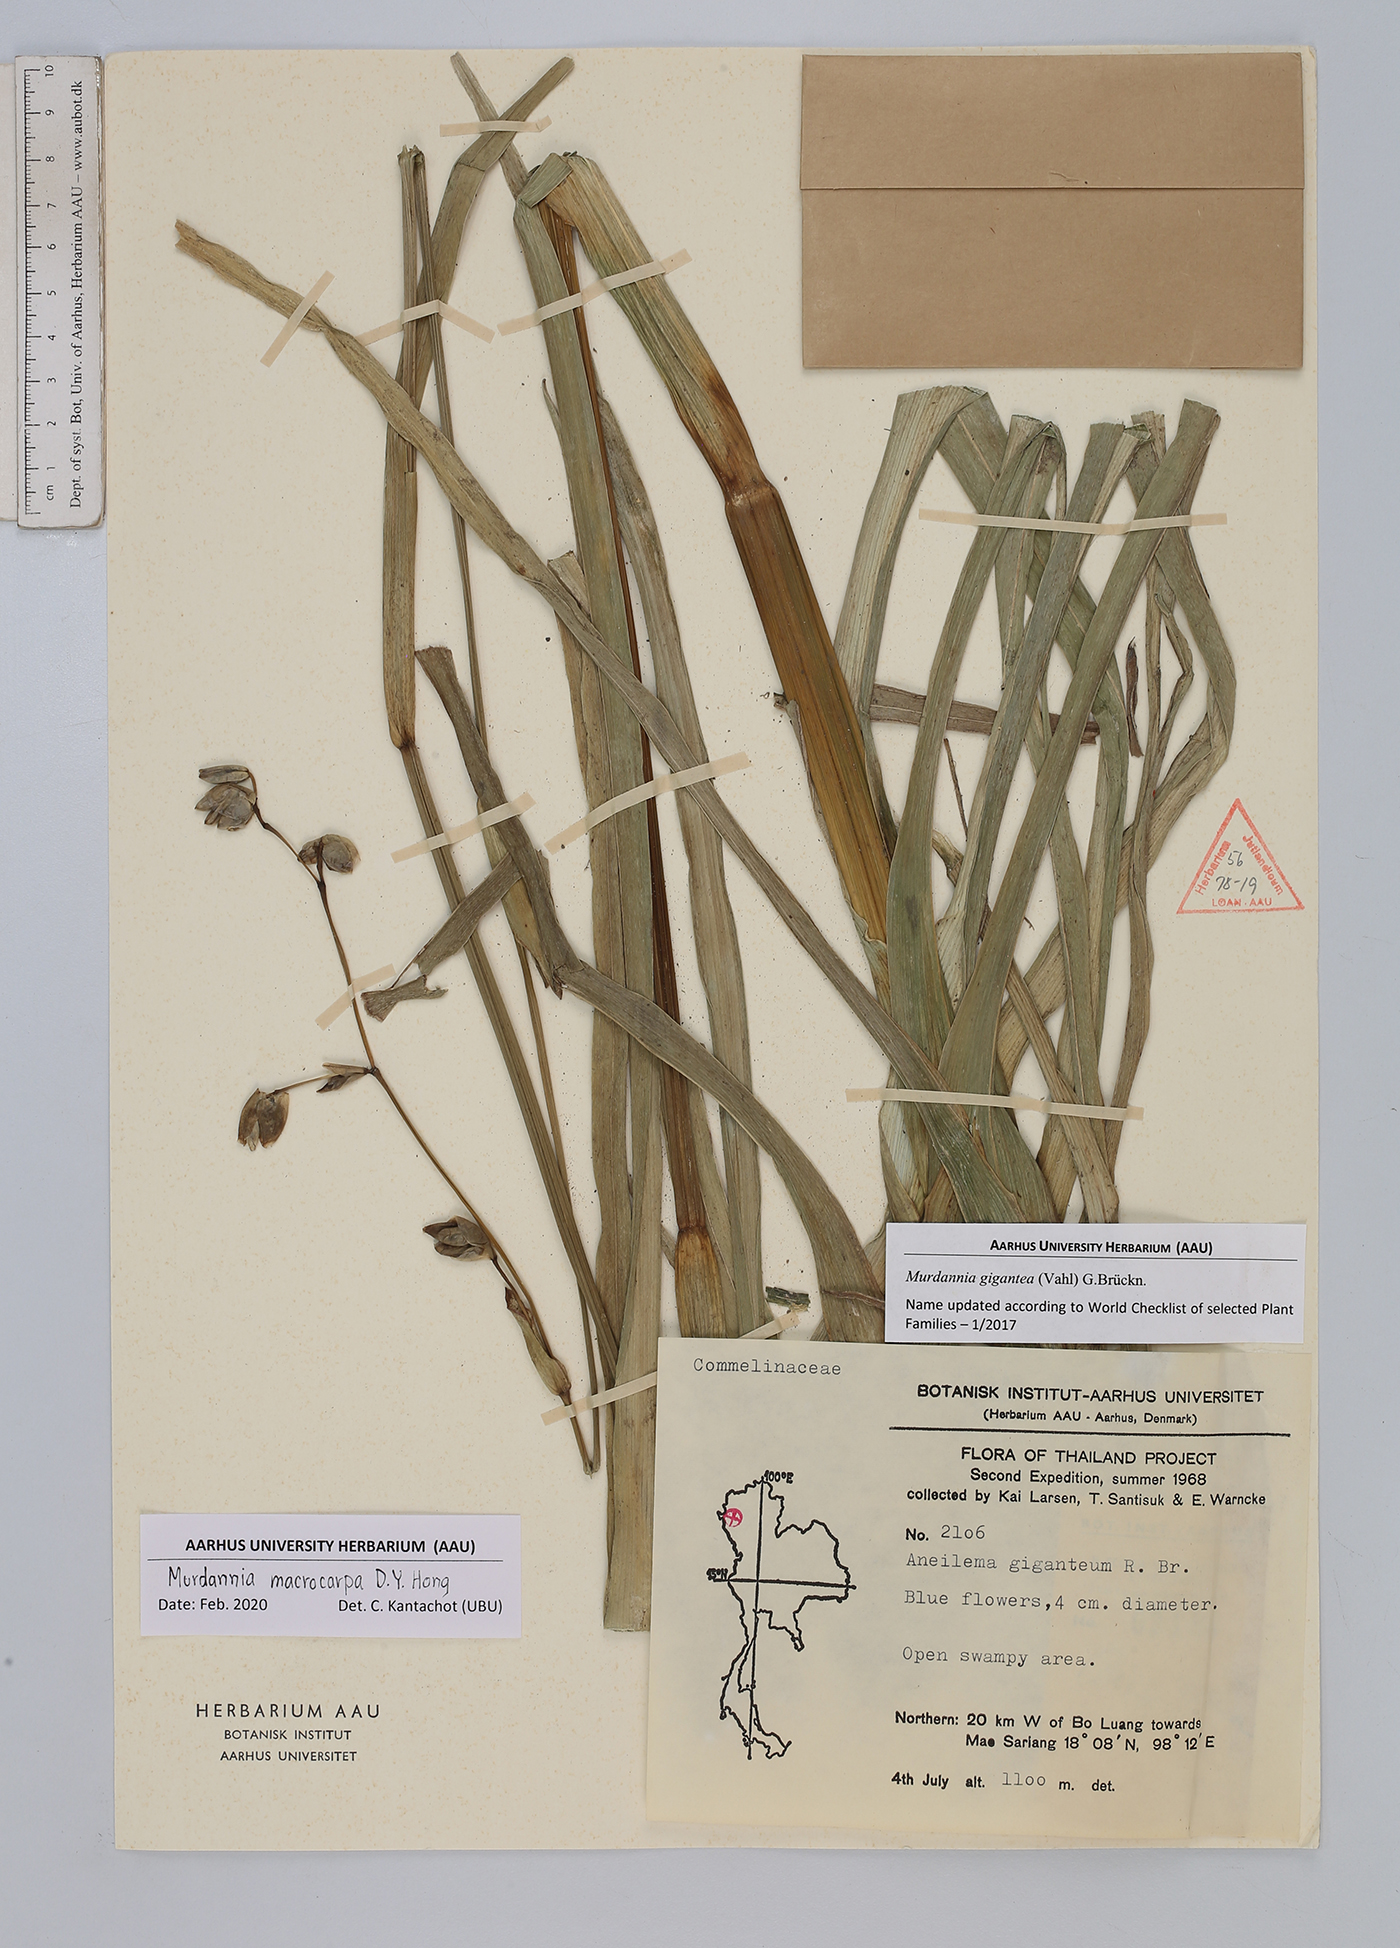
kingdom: Plantae
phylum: Tracheophyta
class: Liliopsida
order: Commelinales
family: Commelinaceae
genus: Murdannia
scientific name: Murdannia macrocarpa
